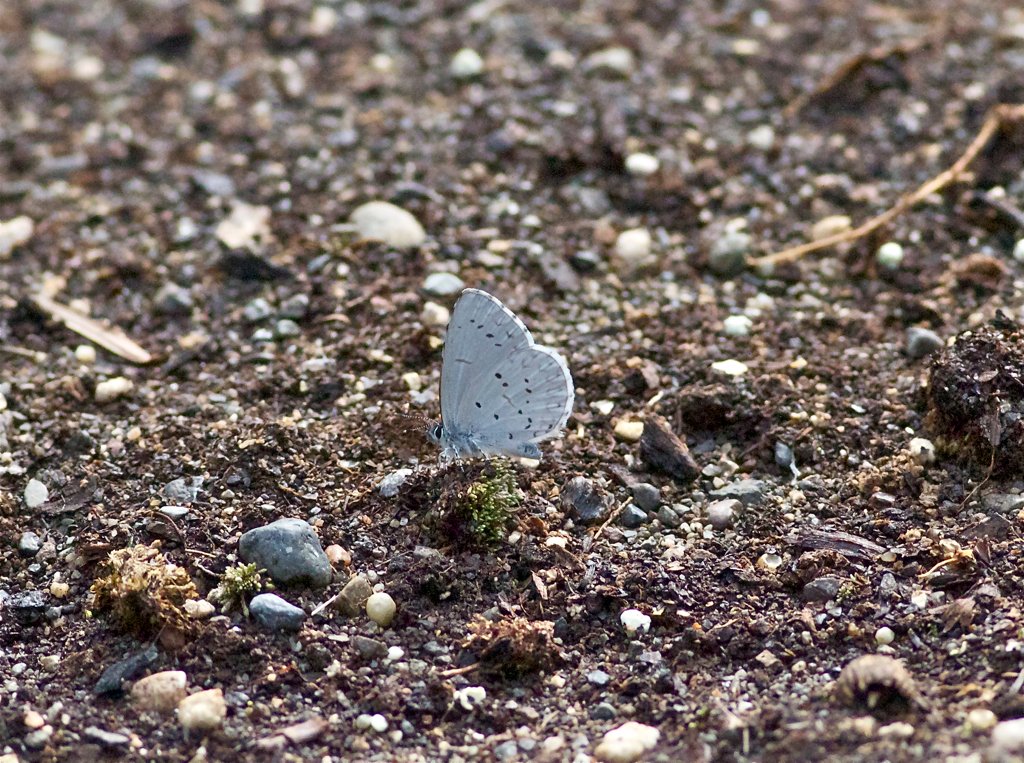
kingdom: Animalia
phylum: Arthropoda
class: Insecta
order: Lepidoptera
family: Lycaenidae
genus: Celastrina
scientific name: Celastrina ladon
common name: Echo Azure
